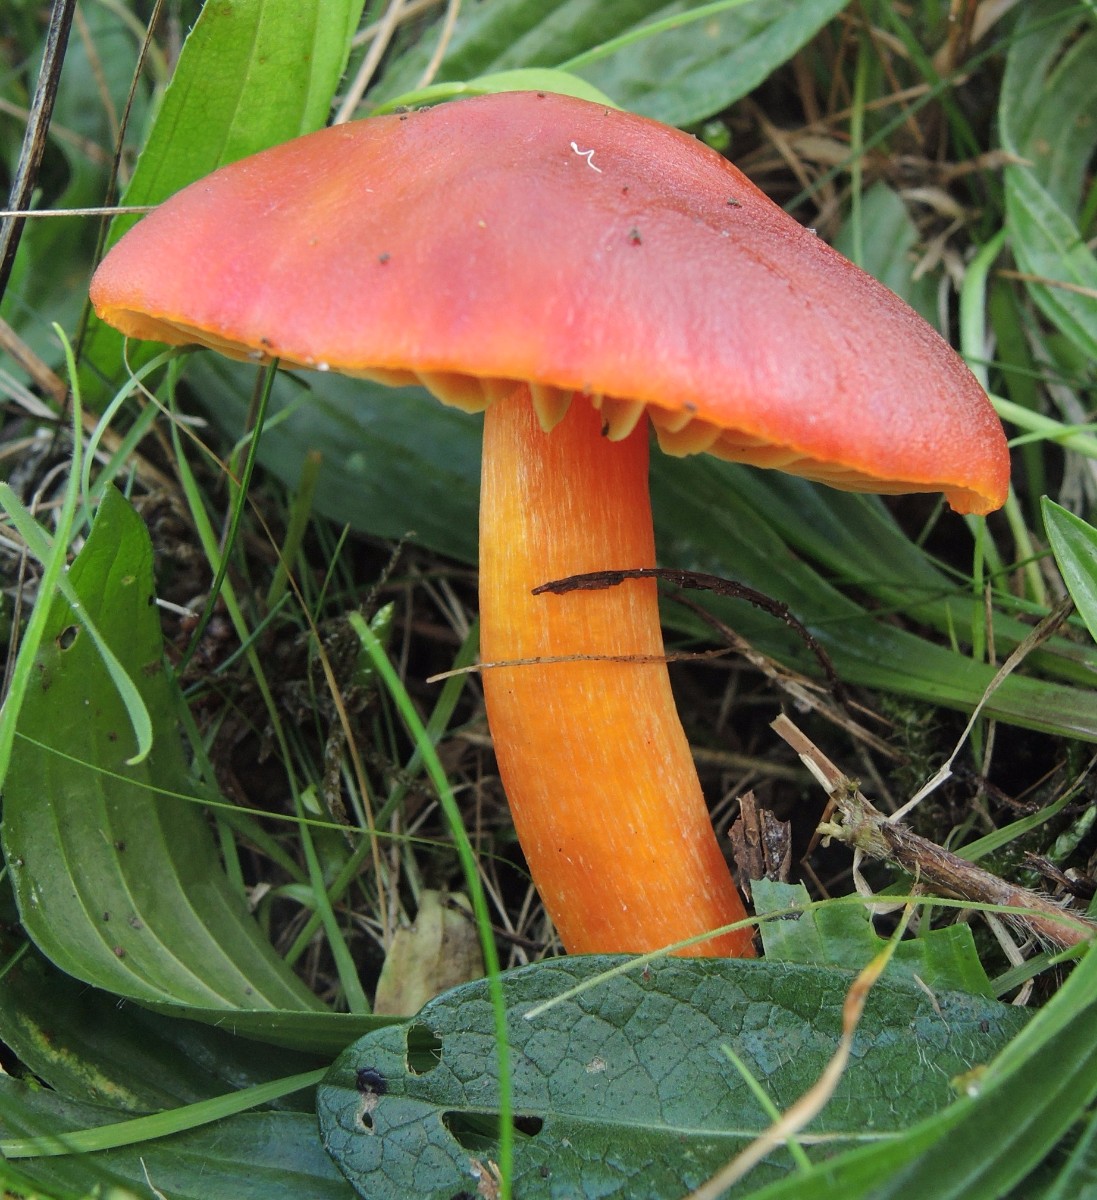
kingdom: Fungi
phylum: Basidiomycota
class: Agaricomycetes
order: Agaricales
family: Hygrophoraceae
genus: Hygrocybe
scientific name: Hygrocybe punicea
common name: skarlagen-vokshat
